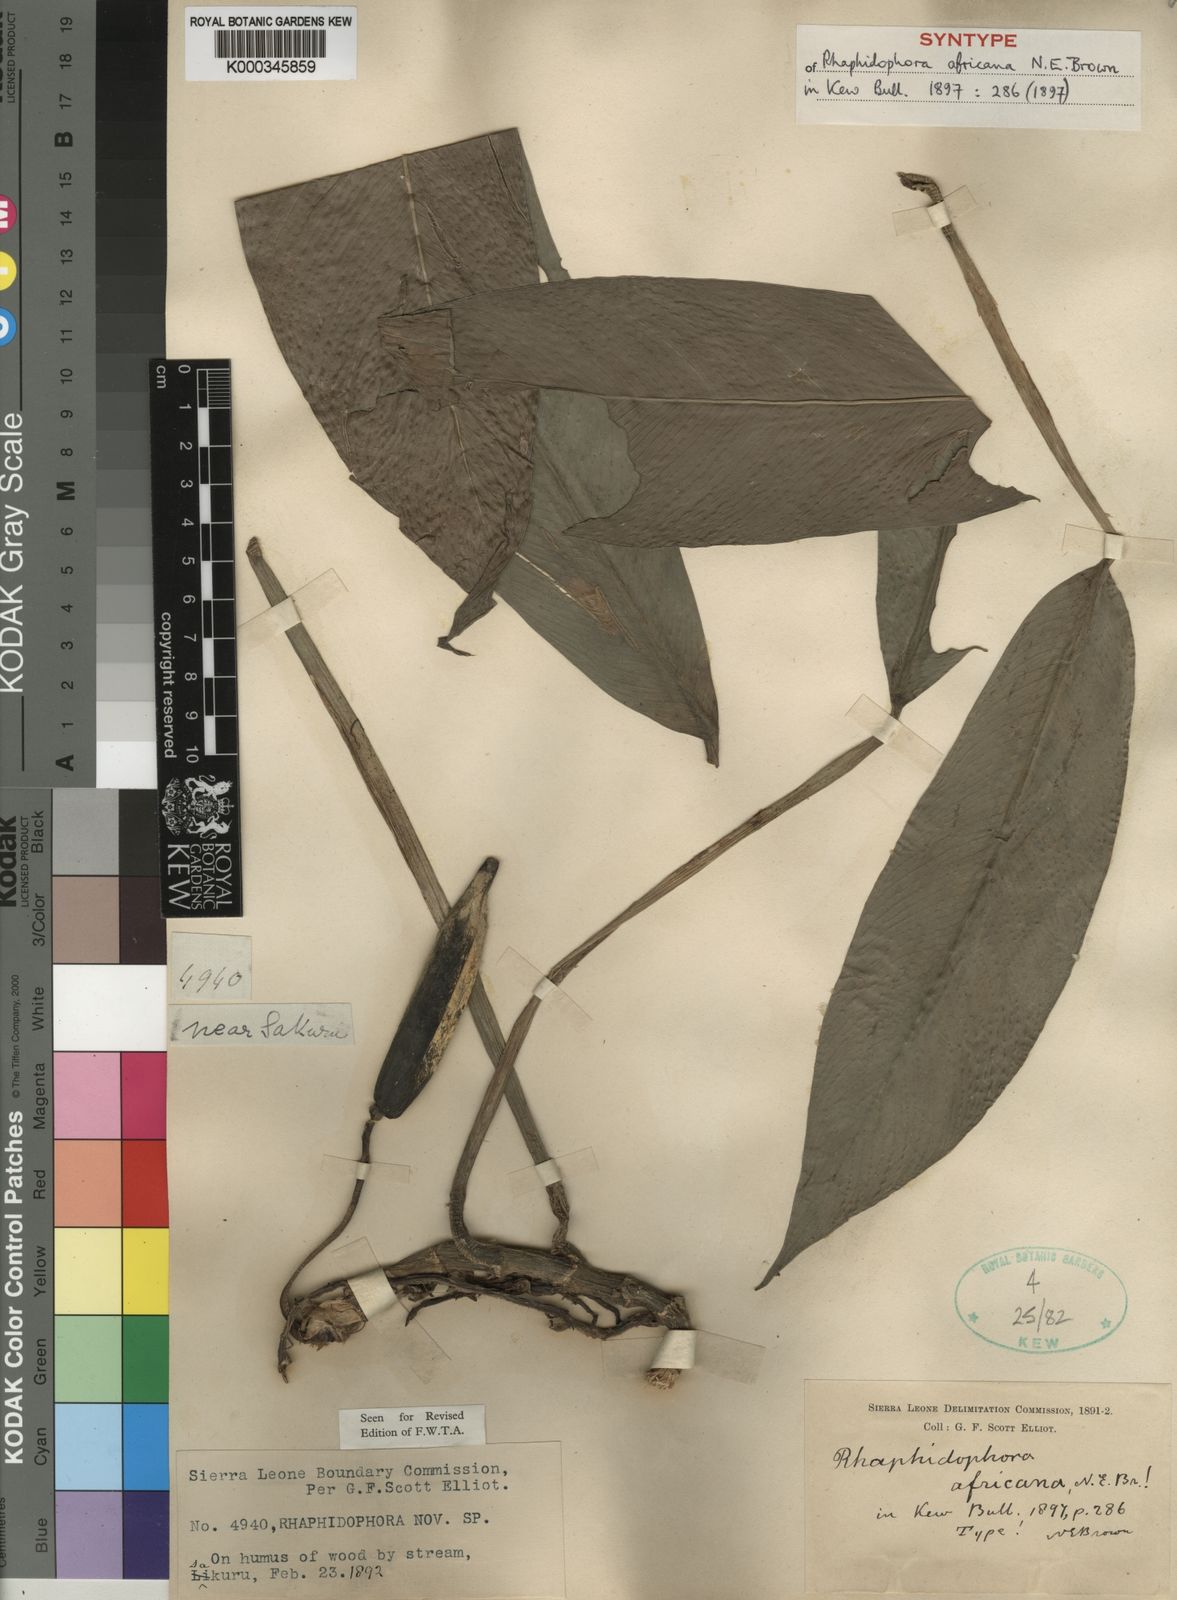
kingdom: Plantae
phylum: Tracheophyta
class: Liliopsida
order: Alismatales
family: Araceae
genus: Rhaphidophora
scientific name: Rhaphidophora africana
